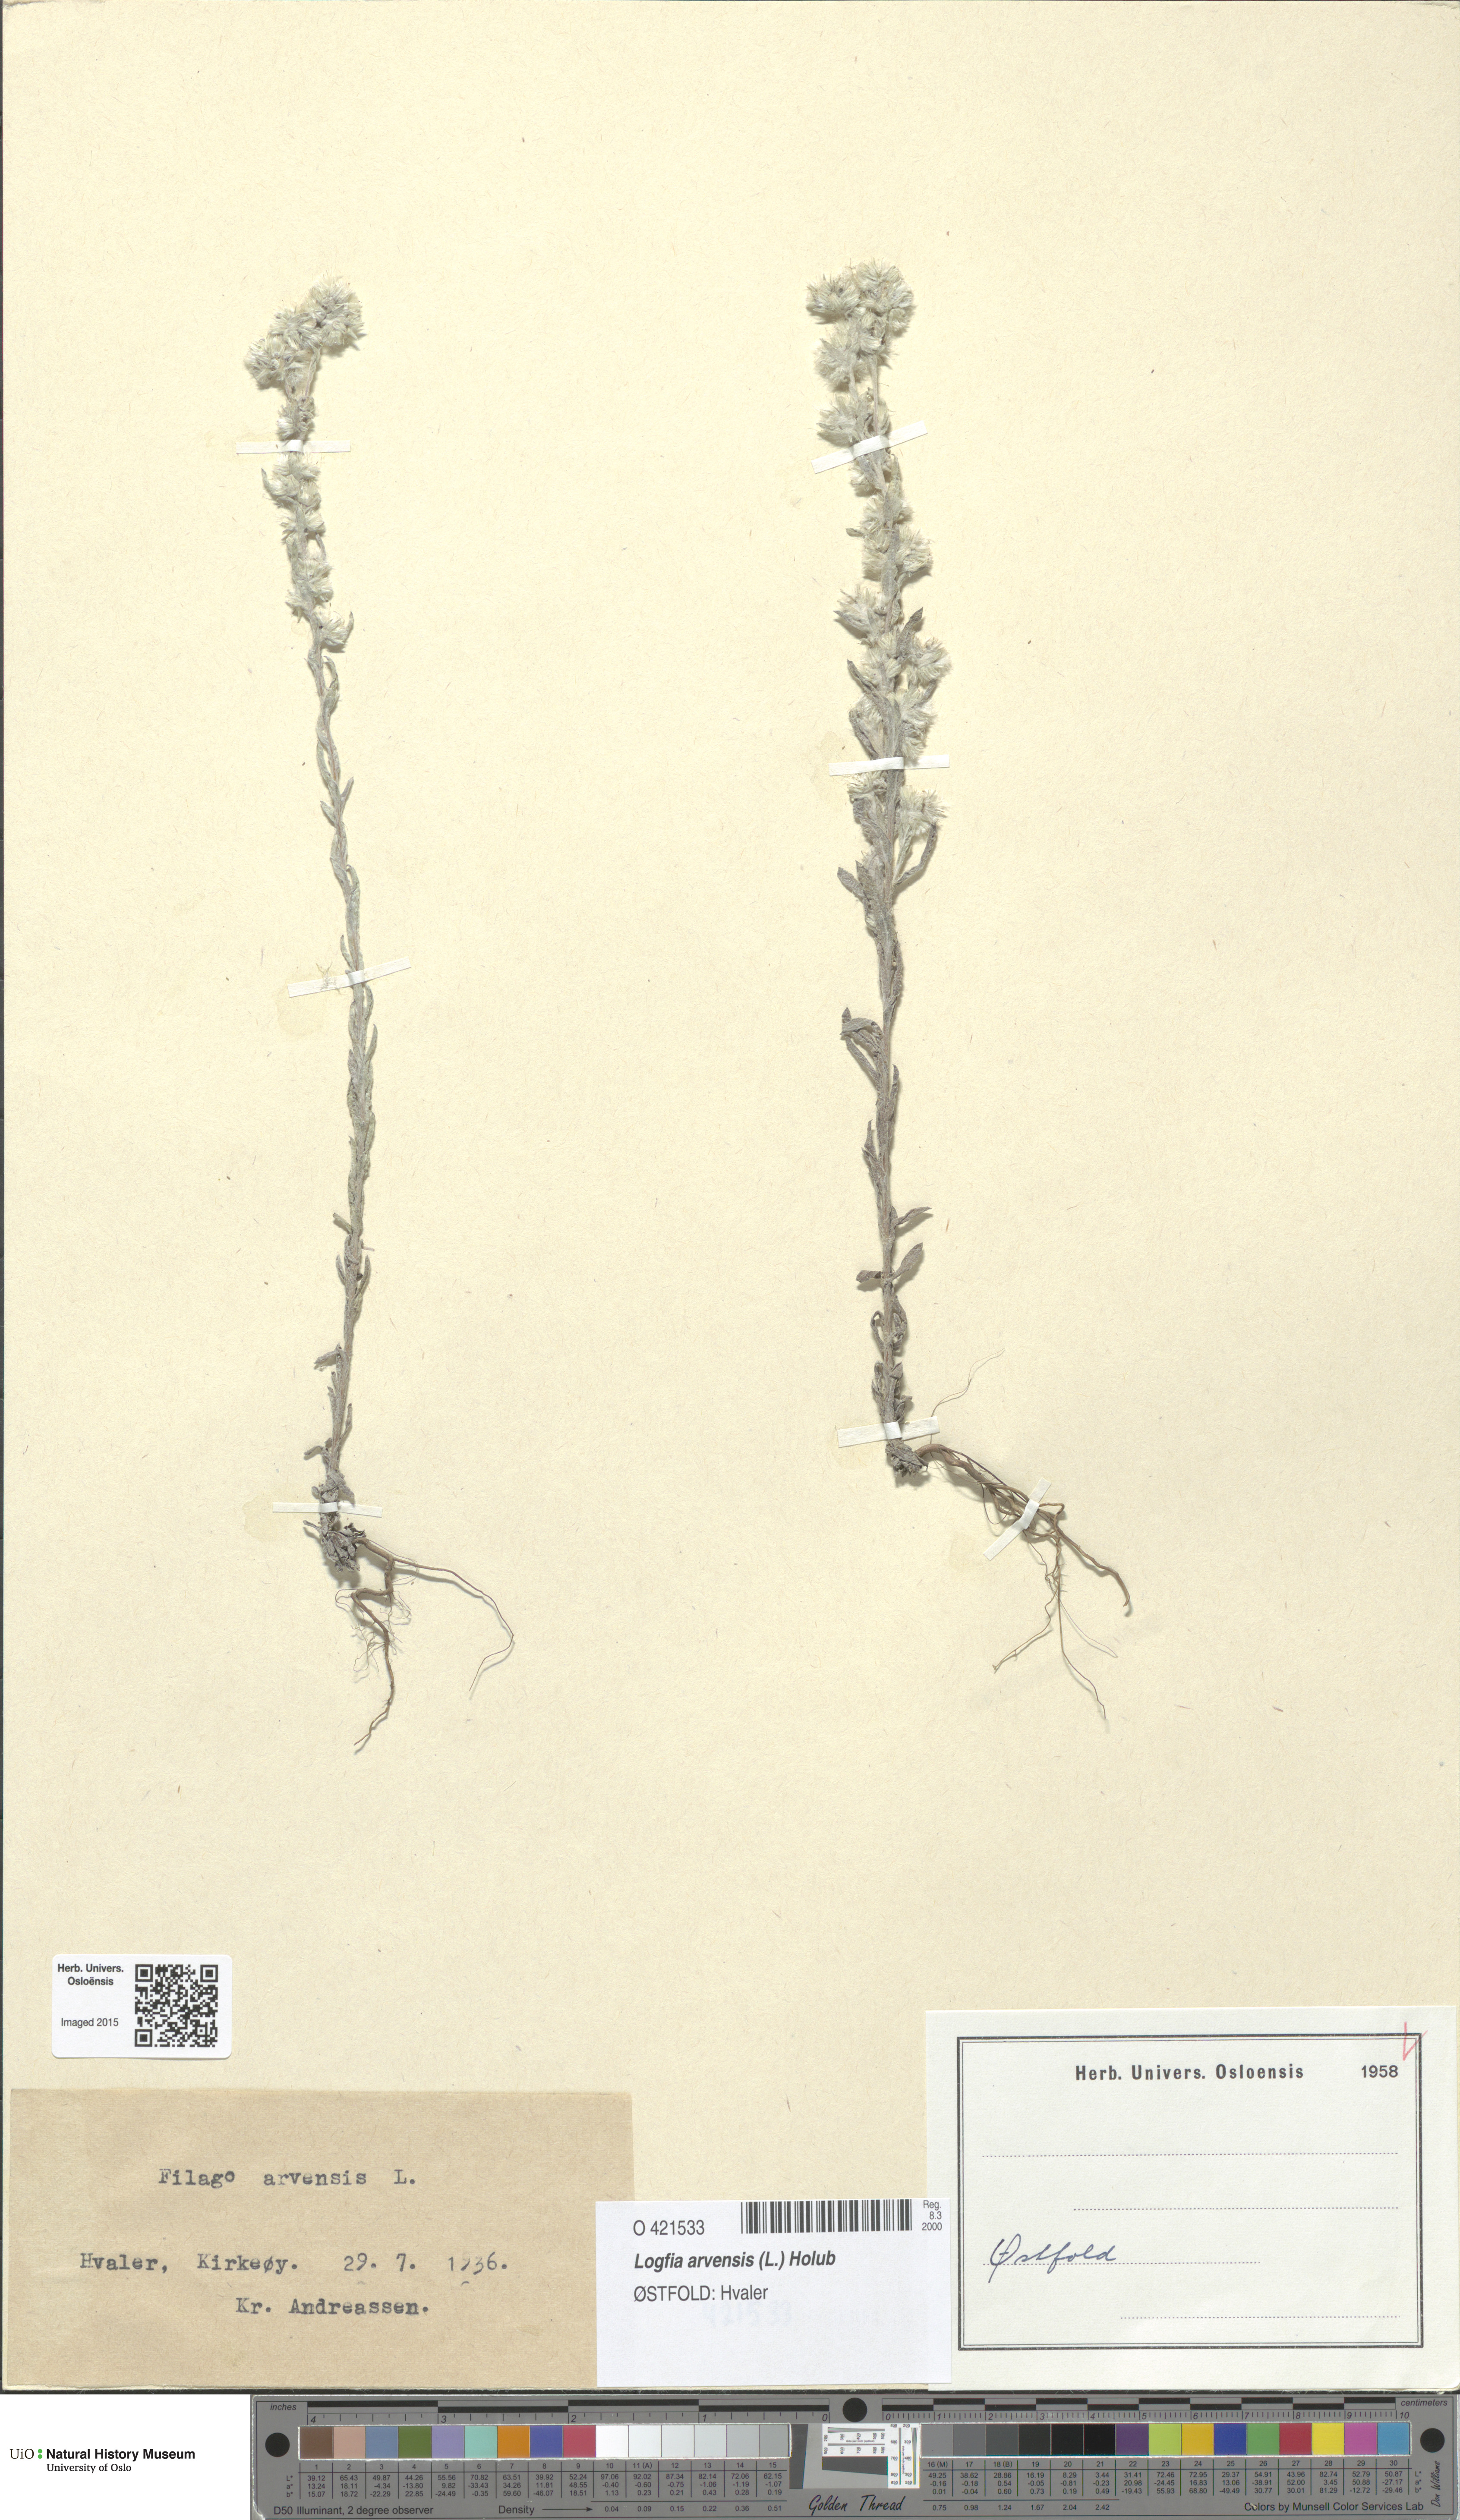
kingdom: Plantae
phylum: Tracheophyta
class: Magnoliopsida
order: Asterales
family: Asteraceae
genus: Filago
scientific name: Filago arvensis
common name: Field cudweed
